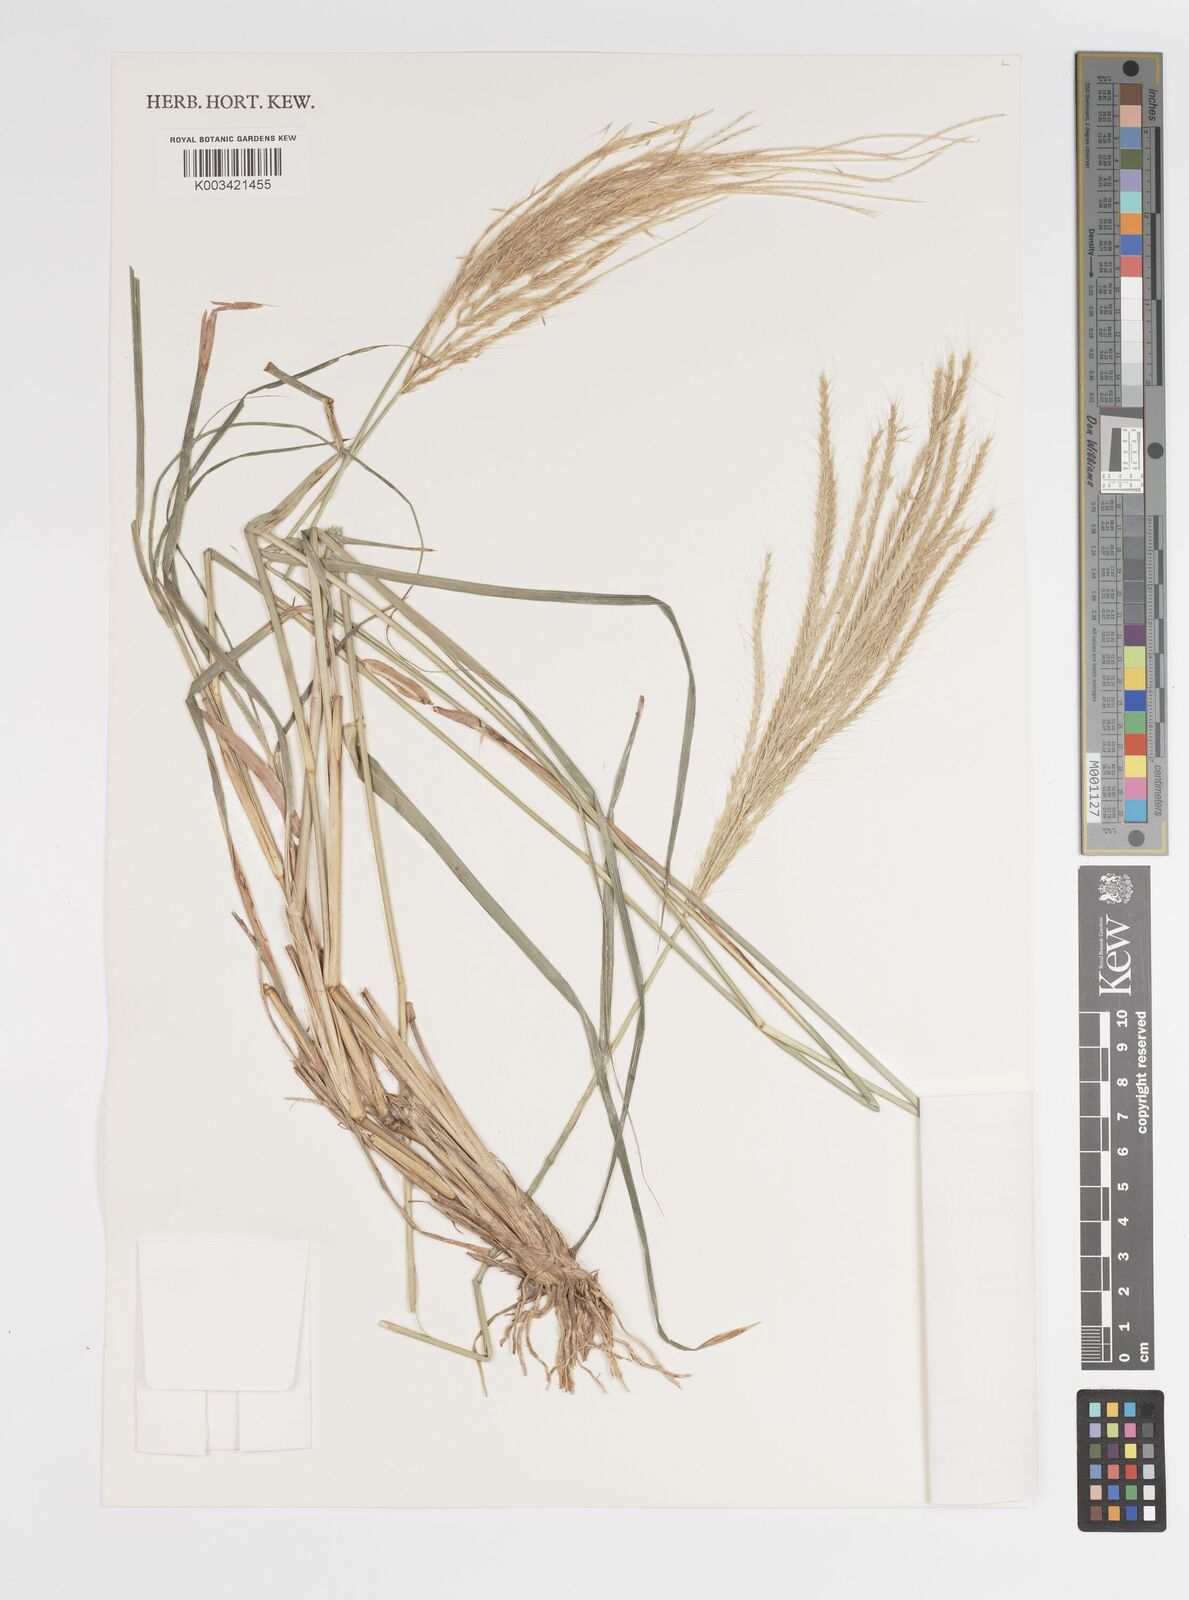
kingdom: Plantae
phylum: Tracheophyta
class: Liliopsida
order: Poales
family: Poaceae
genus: Leptochloa
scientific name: Leptochloa pluriflora
